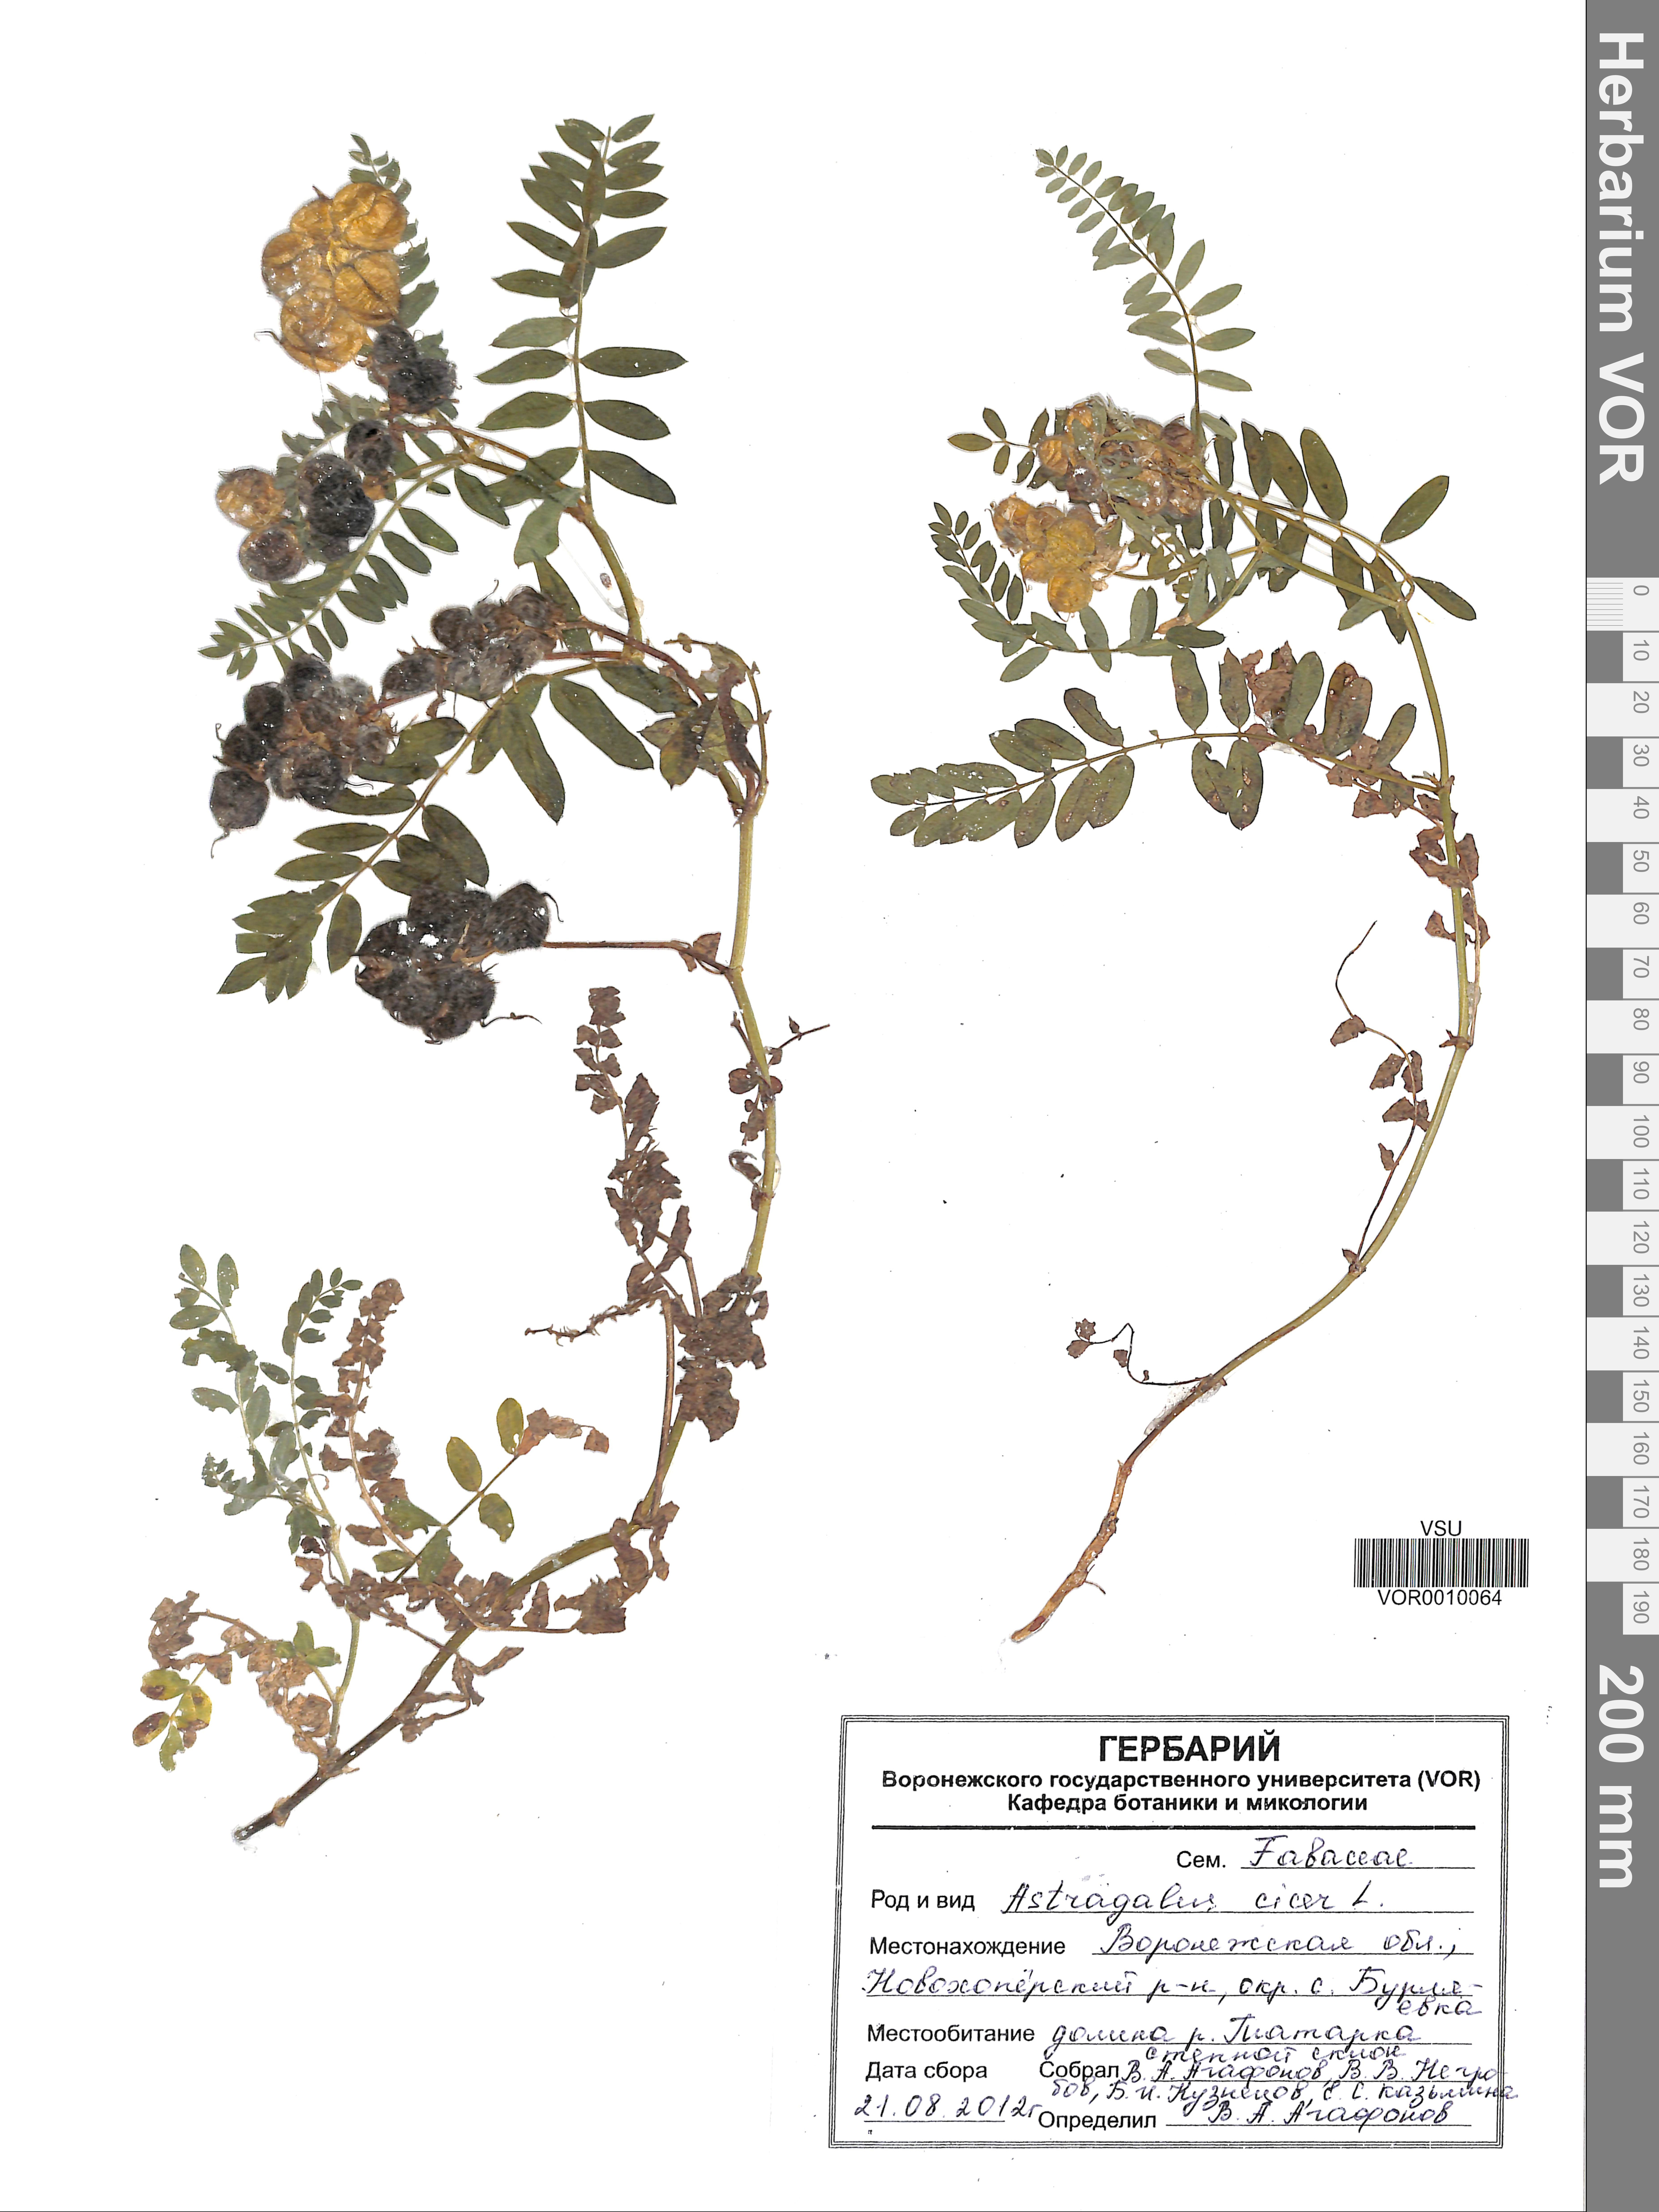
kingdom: Plantae
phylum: Tracheophyta
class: Magnoliopsida
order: Fabales
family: Fabaceae
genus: Astragalus
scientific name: Astragalus cicer
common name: Chick-pea milk-vetch
